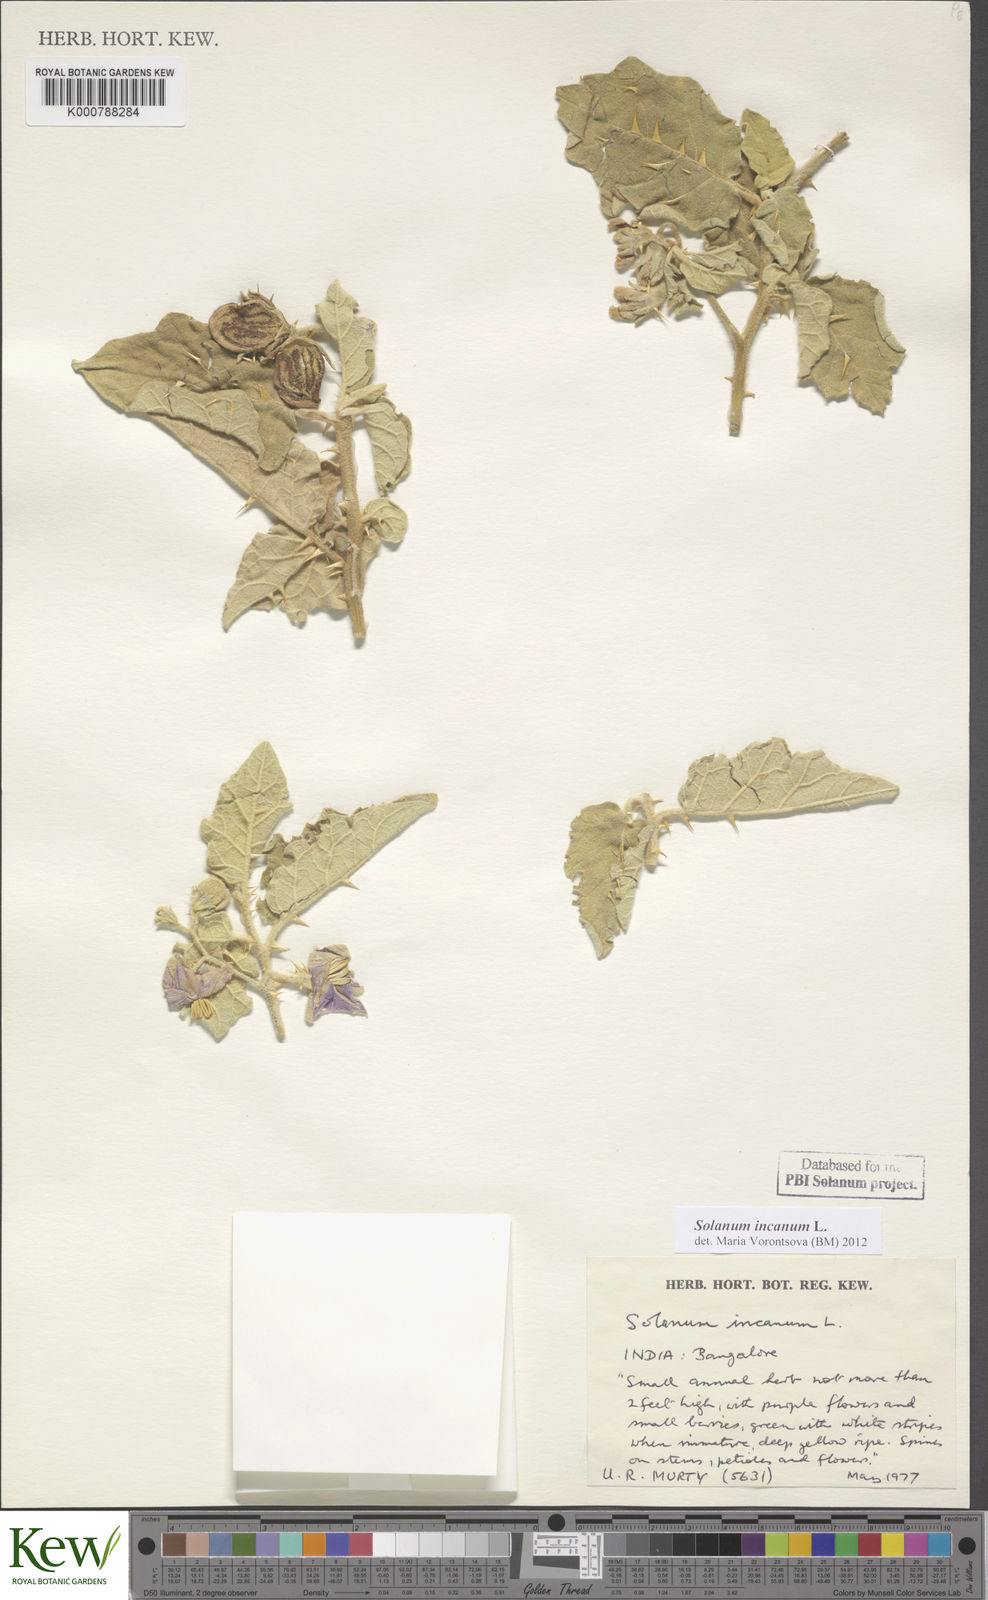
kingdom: Plantae
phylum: Tracheophyta
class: Magnoliopsida
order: Solanales
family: Solanaceae
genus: Solanum
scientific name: Solanum insanum
